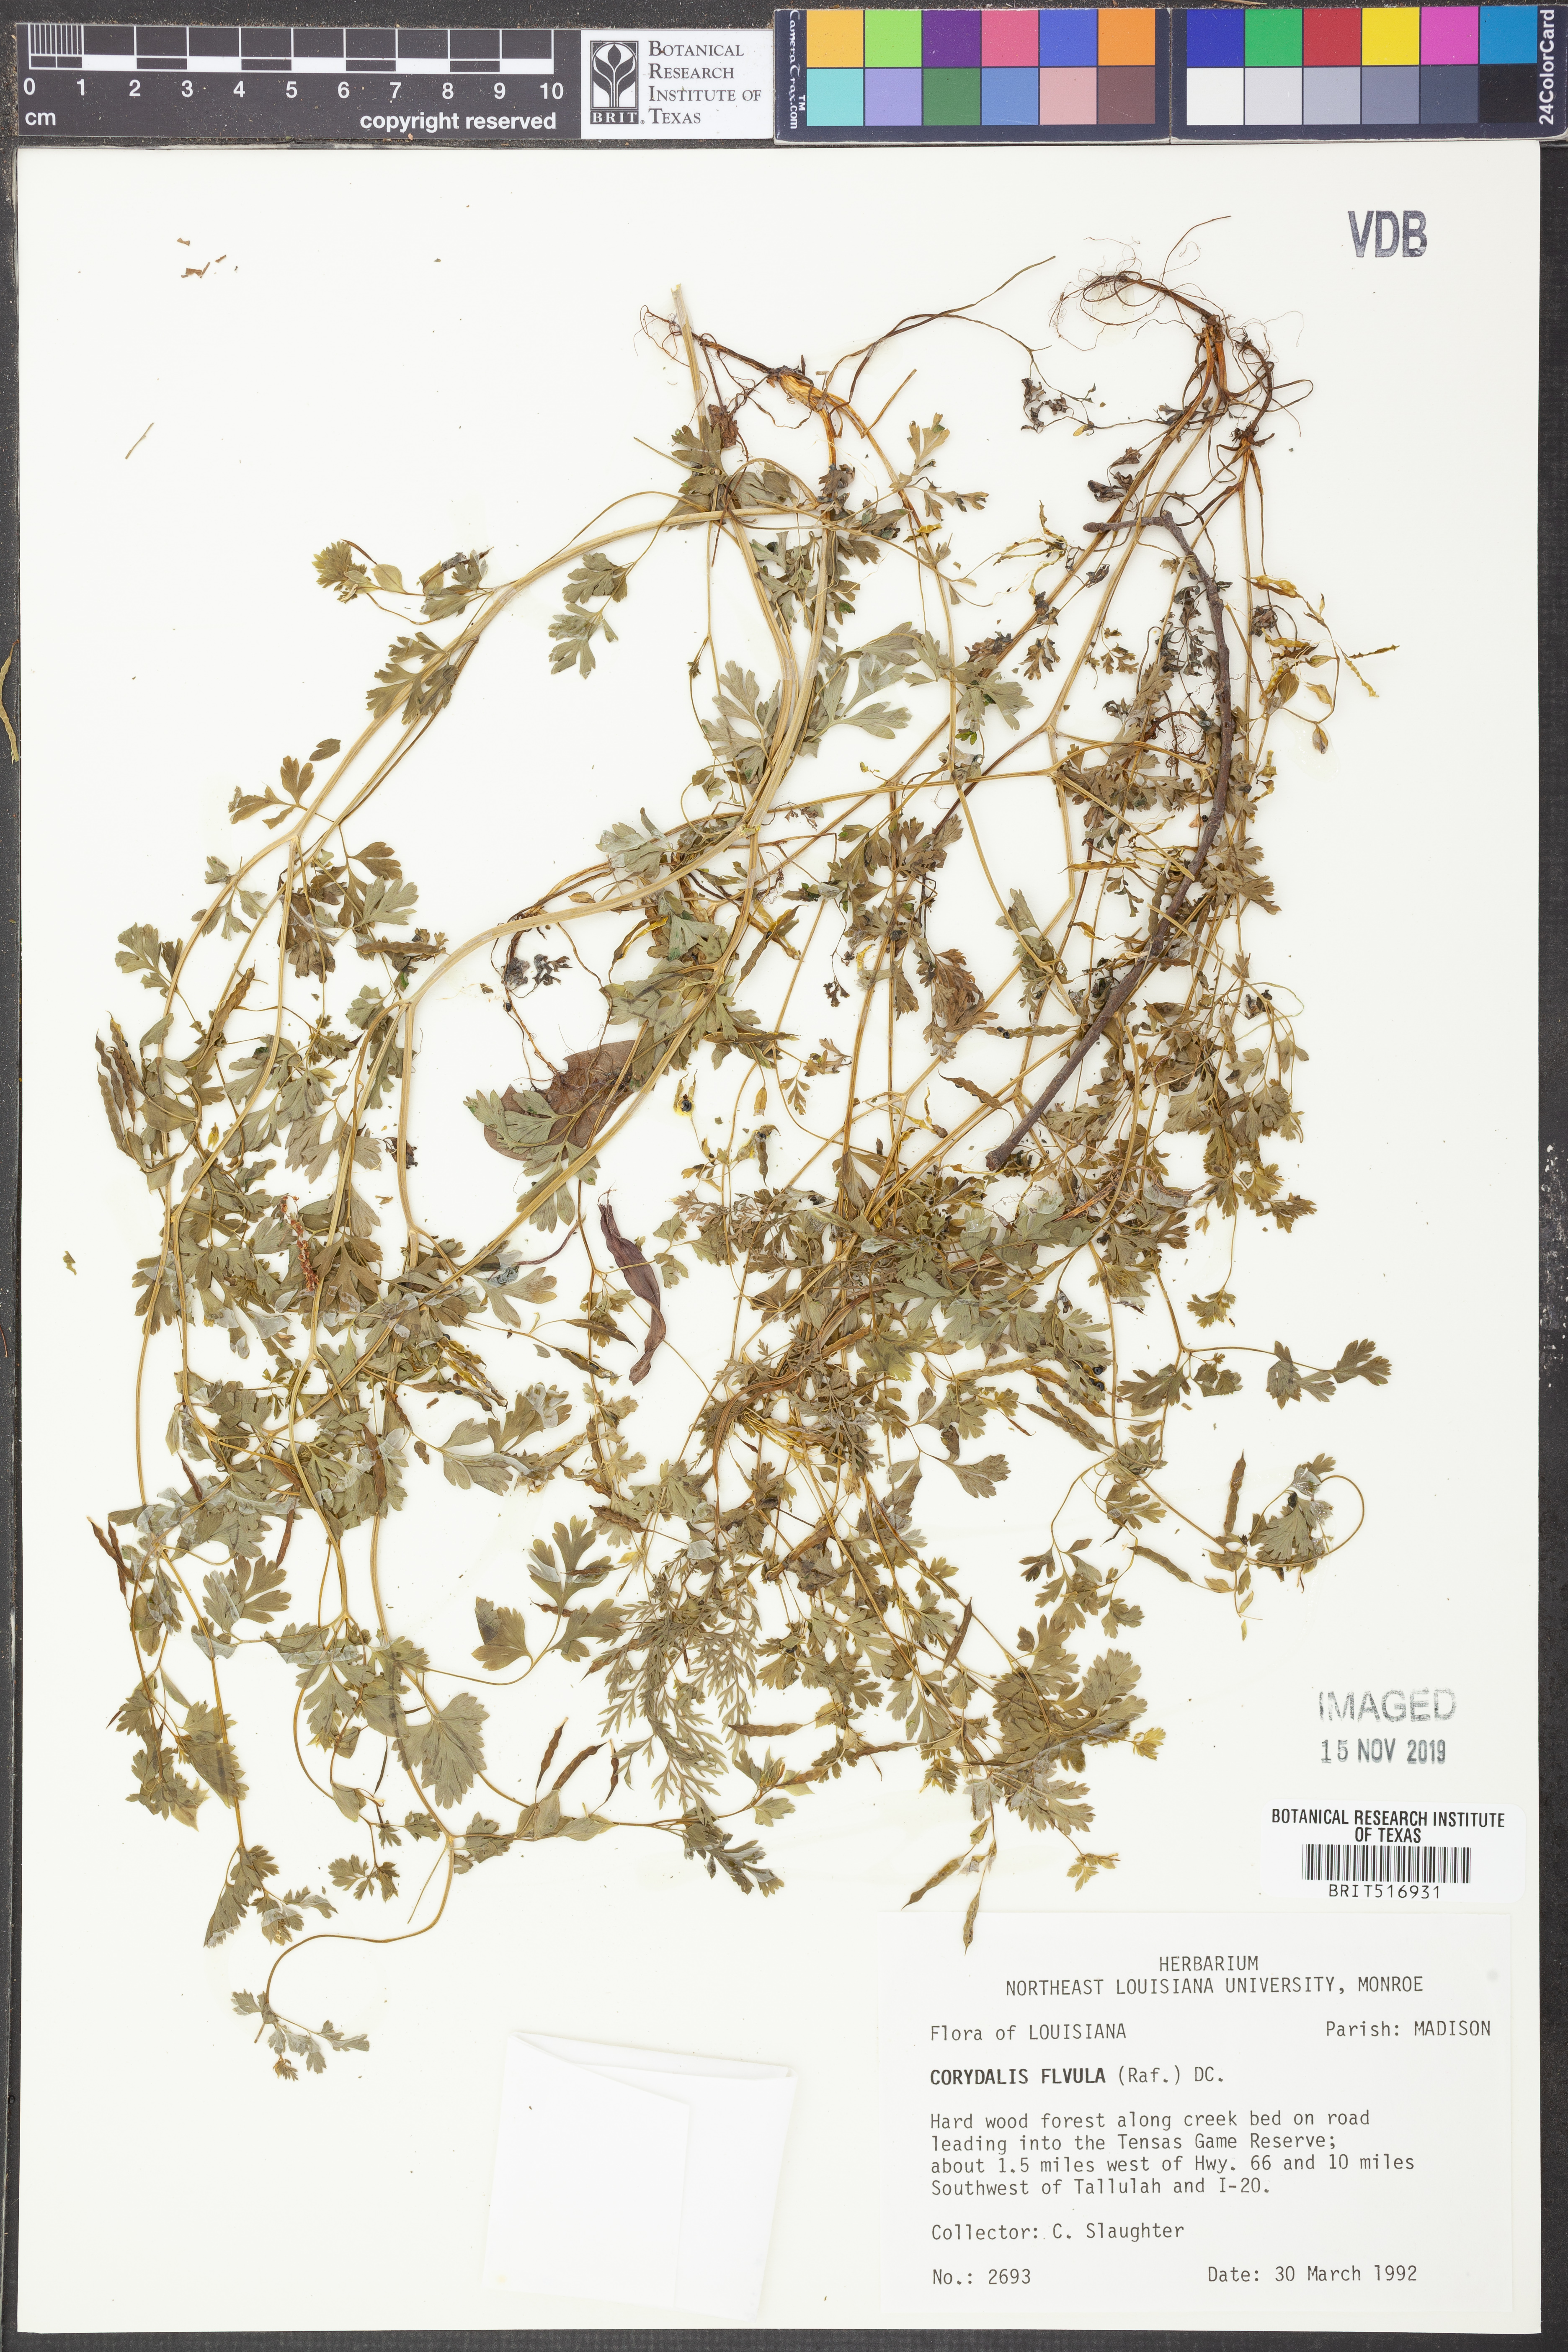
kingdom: Plantae
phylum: Tracheophyta
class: Magnoliopsida
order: Ranunculales
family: Papaveraceae
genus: Corydalis
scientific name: Corydalis flavula
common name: Yellow corydalis
